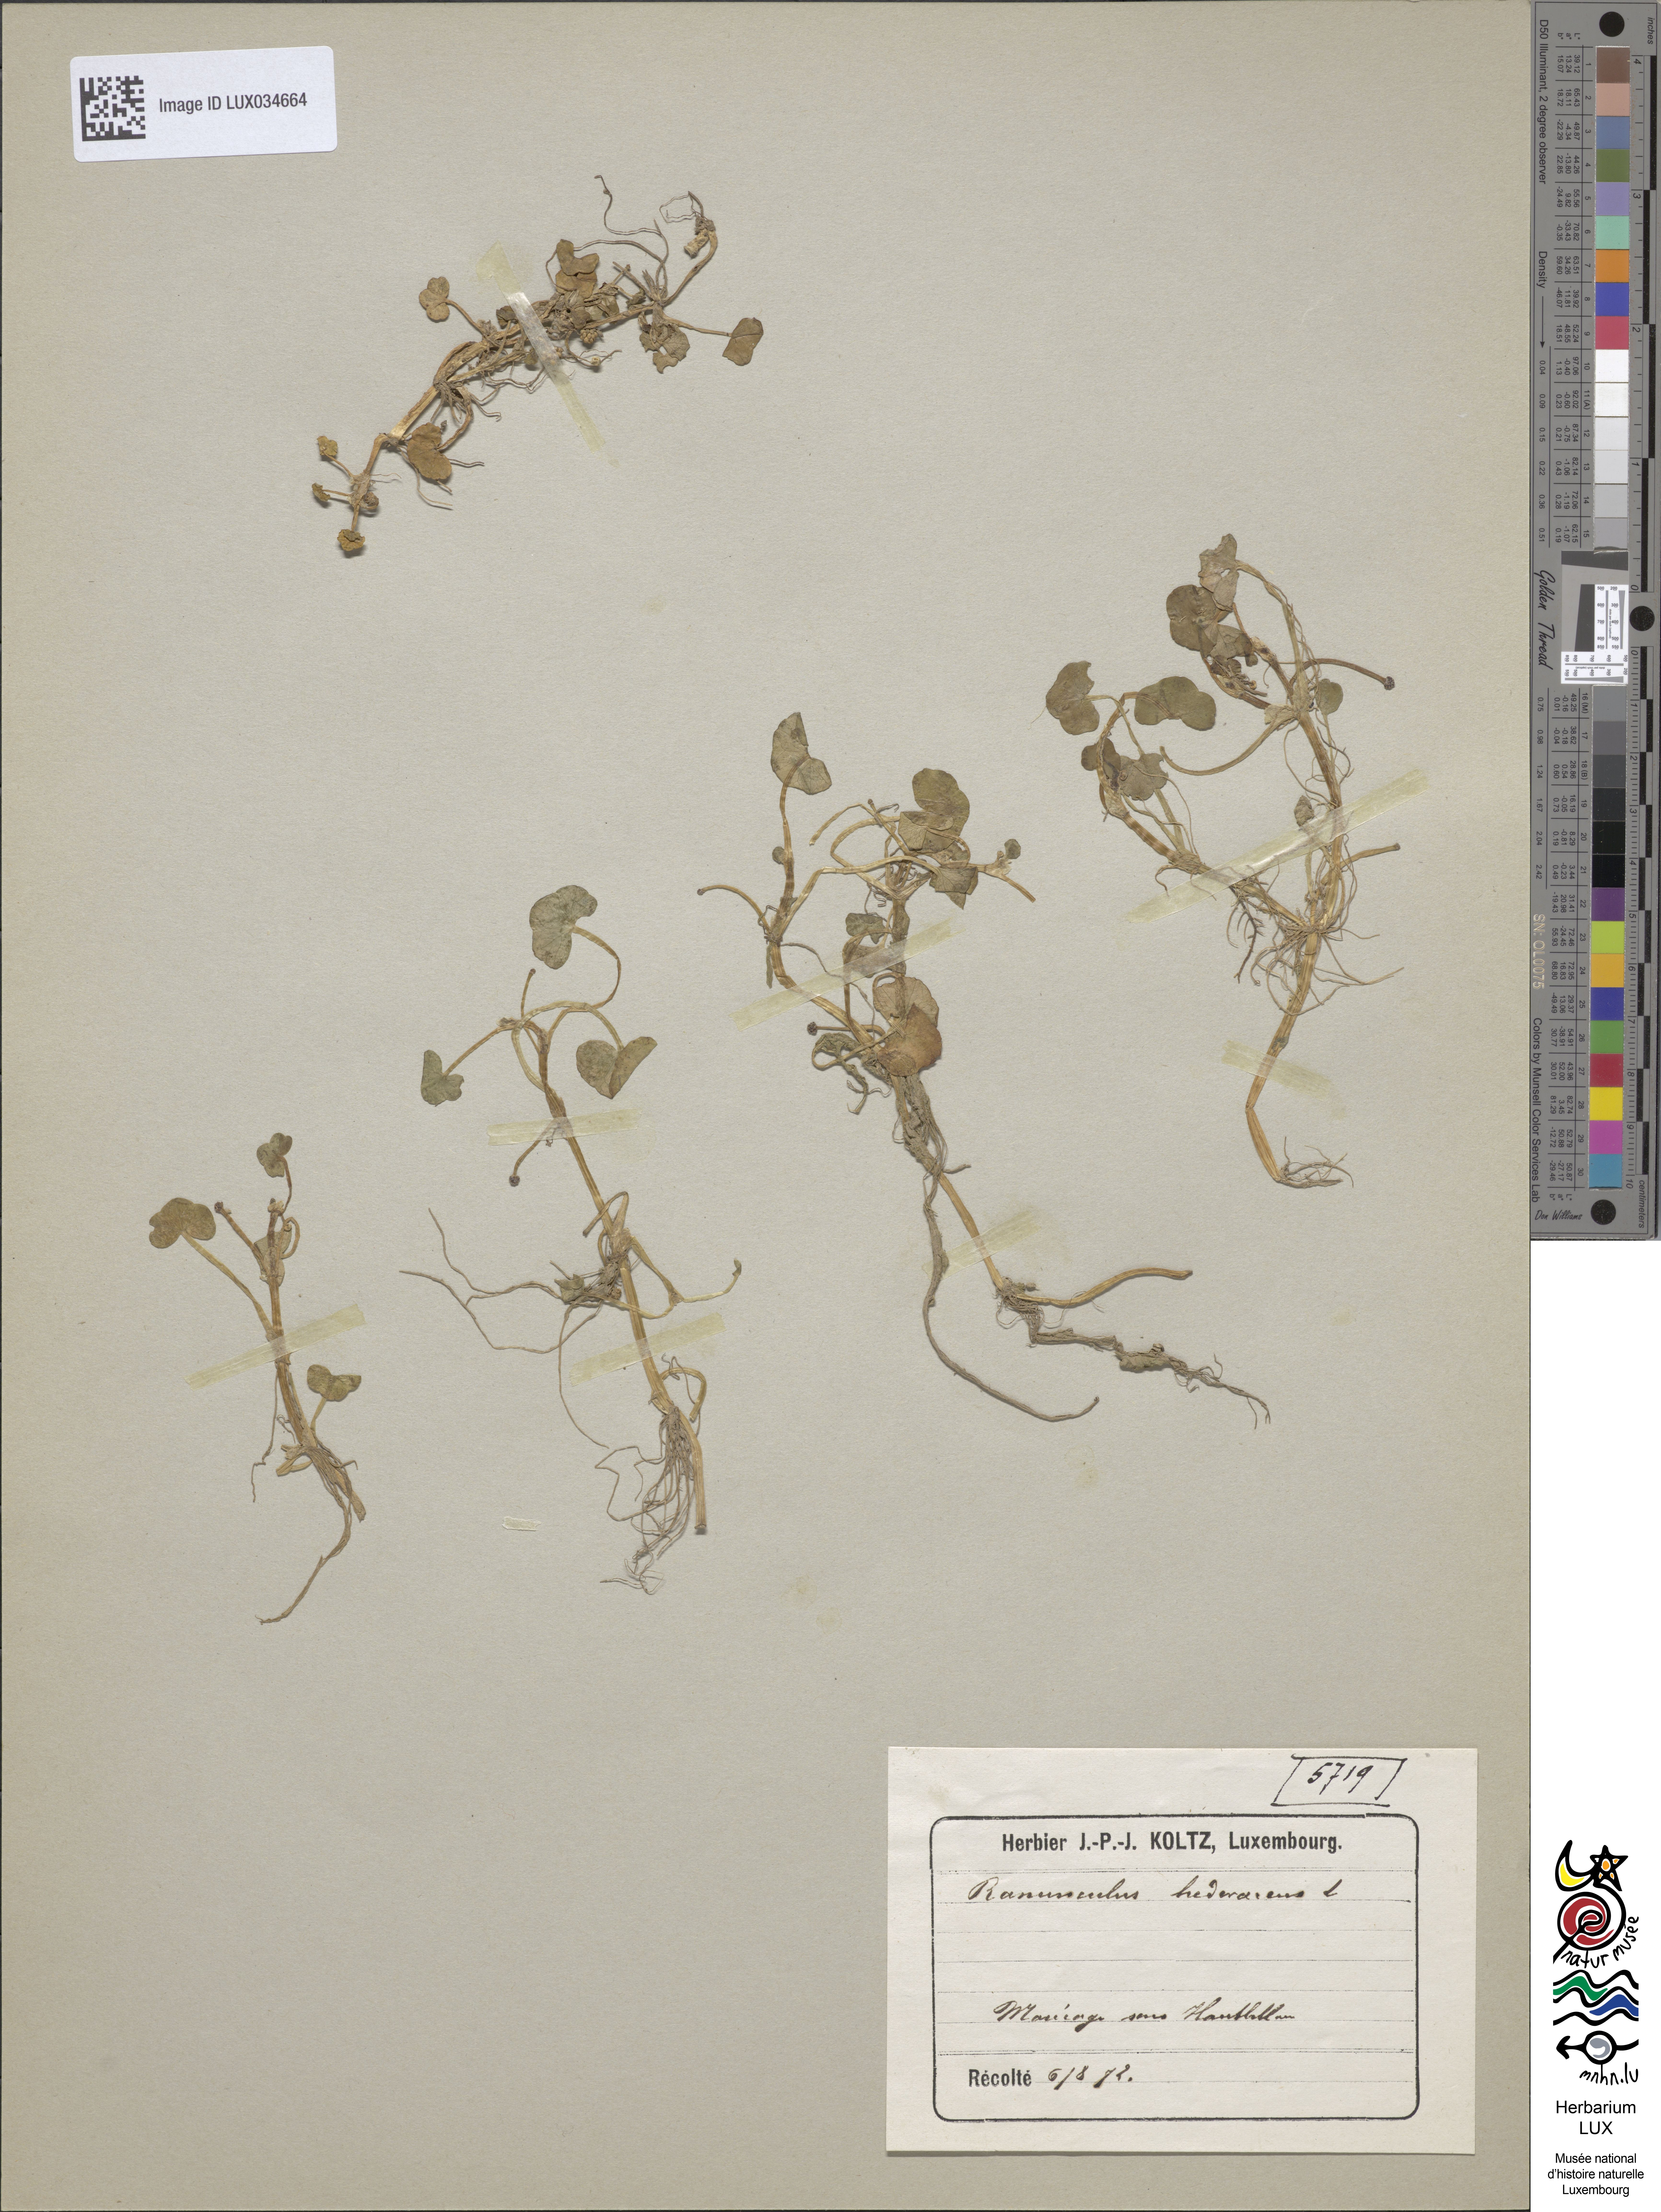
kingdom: Plantae
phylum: Tracheophyta
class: Magnoliopsida
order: Ranunculales
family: Ranunculaceae
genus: Ranunculus
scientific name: Ranunculus hederaceus
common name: Ivy-leaved crowfoot
